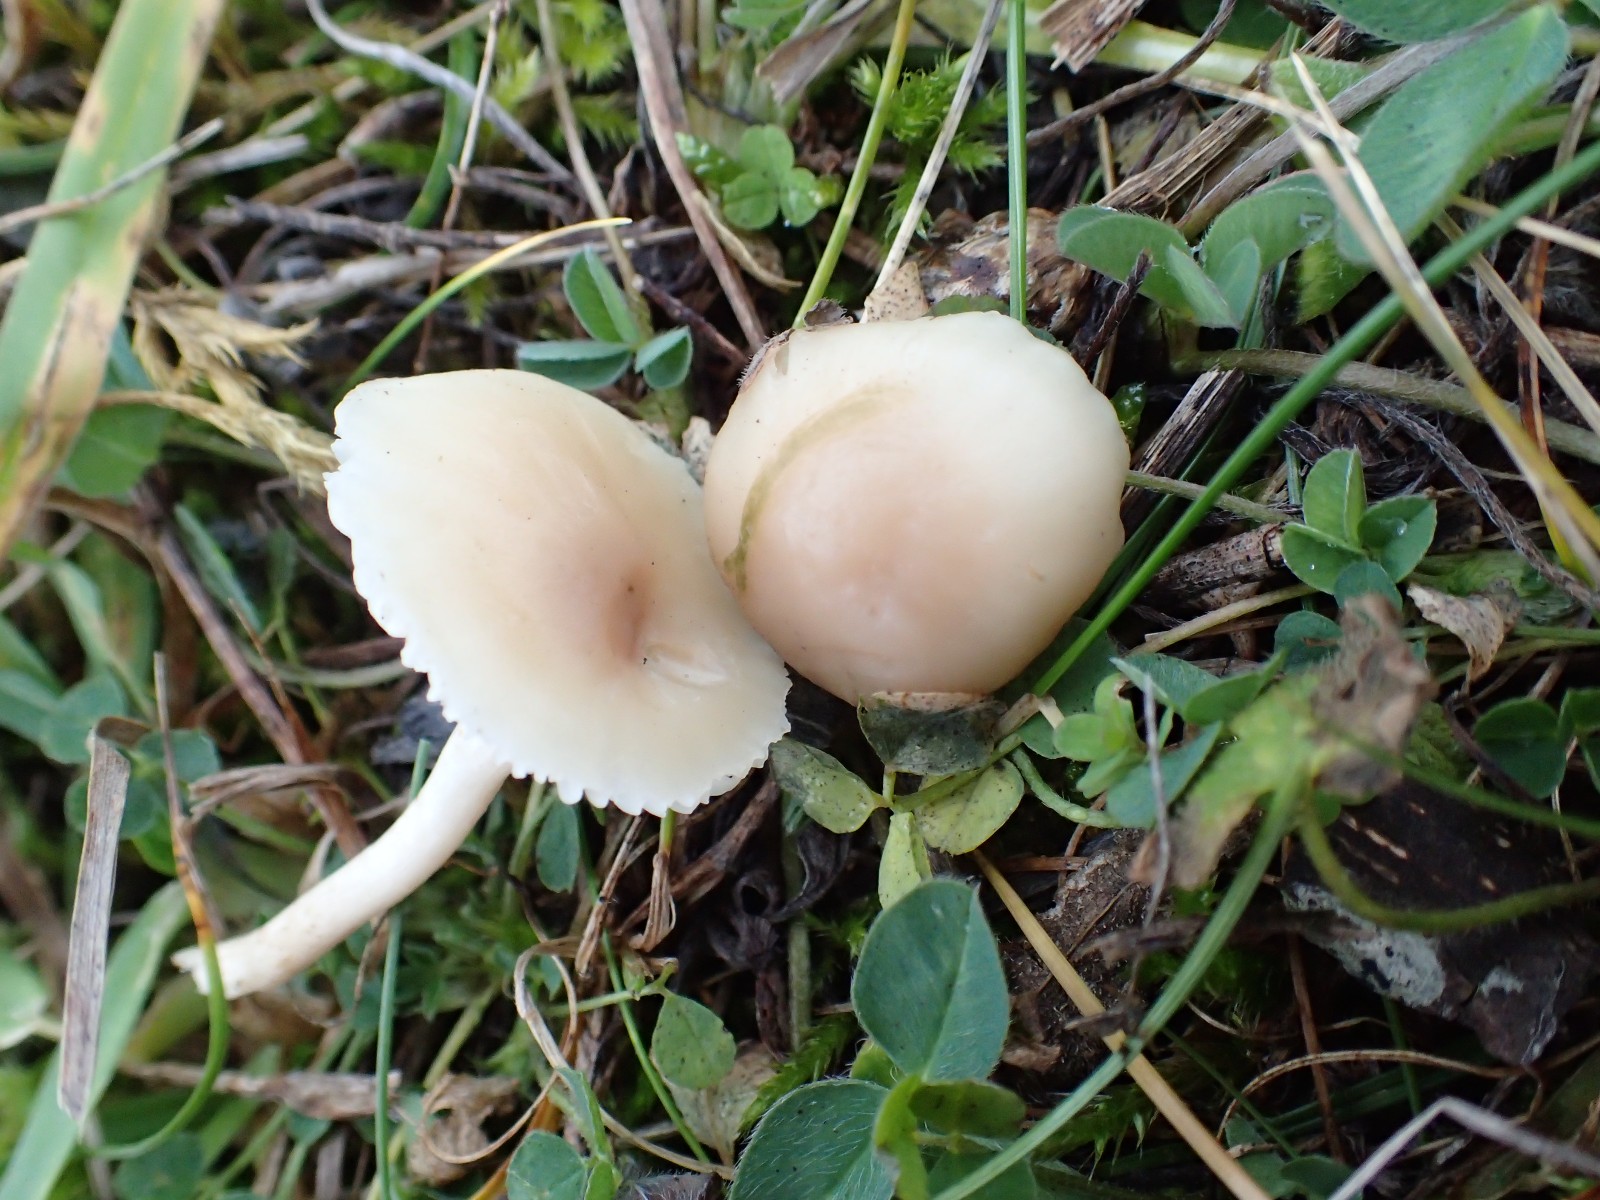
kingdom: Fungi
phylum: Basidiomycota
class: Agaricomycetes
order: Agaricales
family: Hygrophoraceae
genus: Cuphophyllus
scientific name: Cuphophyllus virgineus
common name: isabella-vokshat
